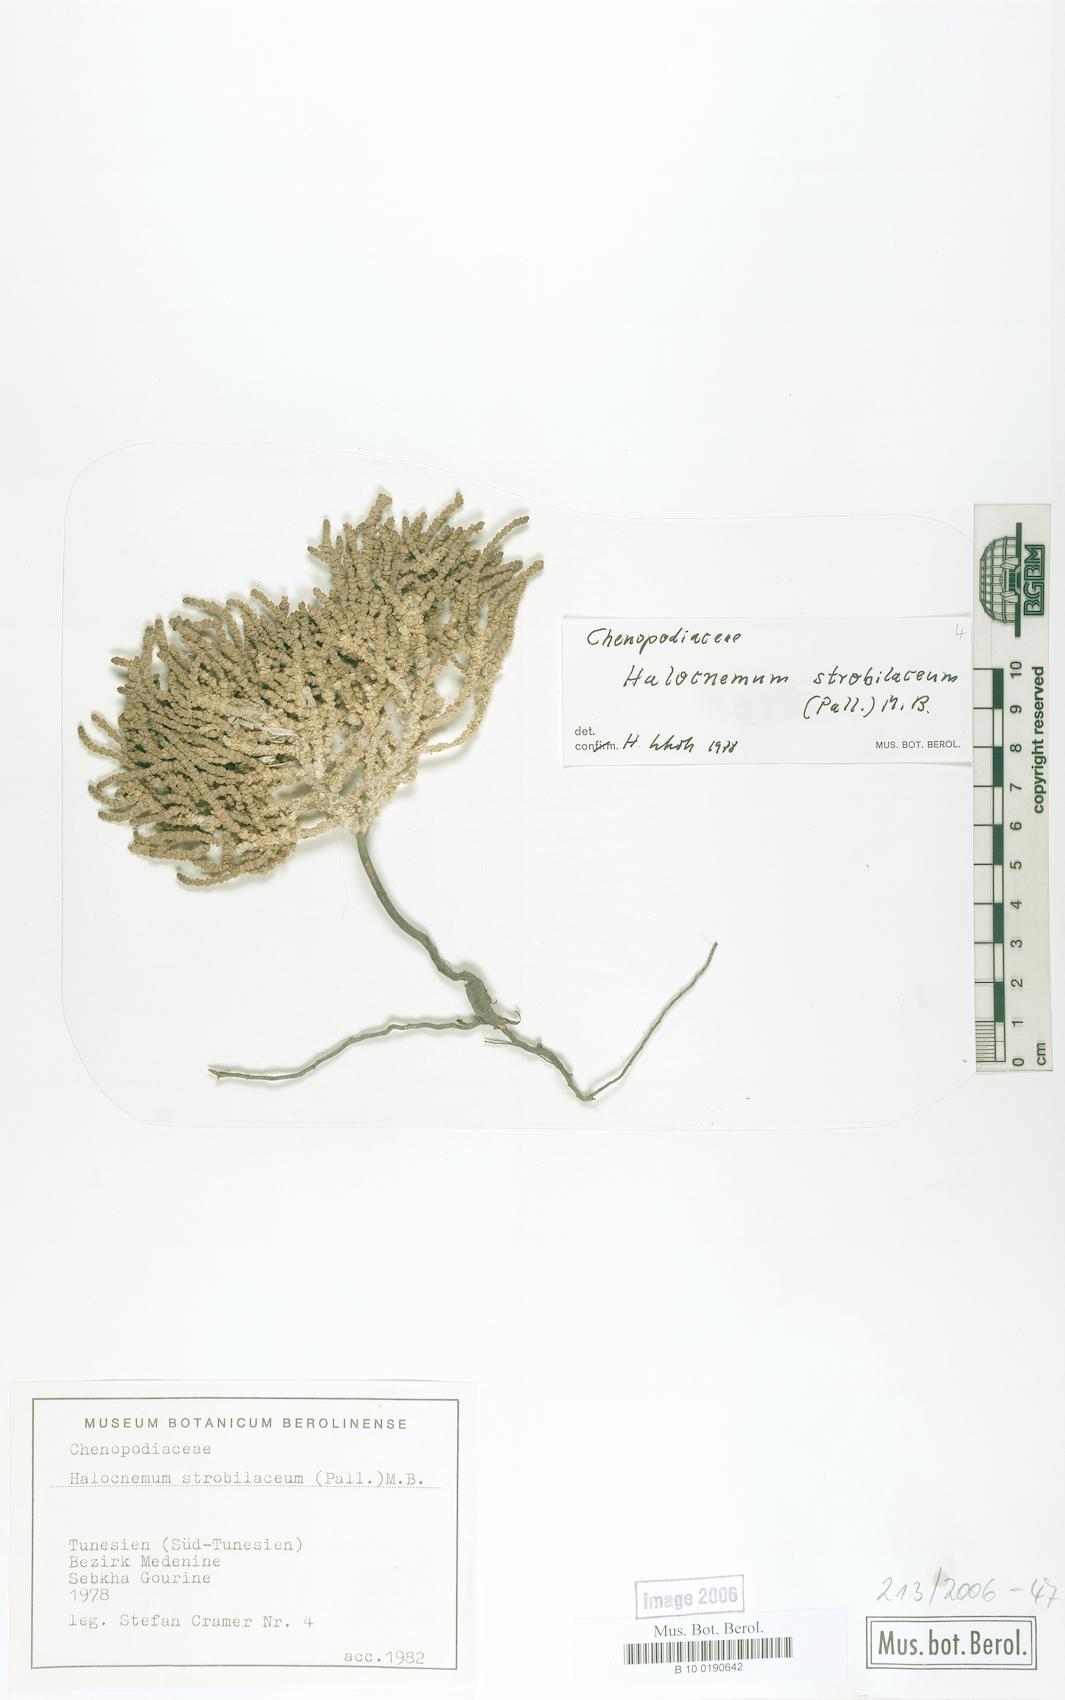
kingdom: Plantae
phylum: Tracheophyta
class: Magnoliopsida
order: Caryophyllales
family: Amaranthaceae
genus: Halocnemum
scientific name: Halocnemum strobilaceum
